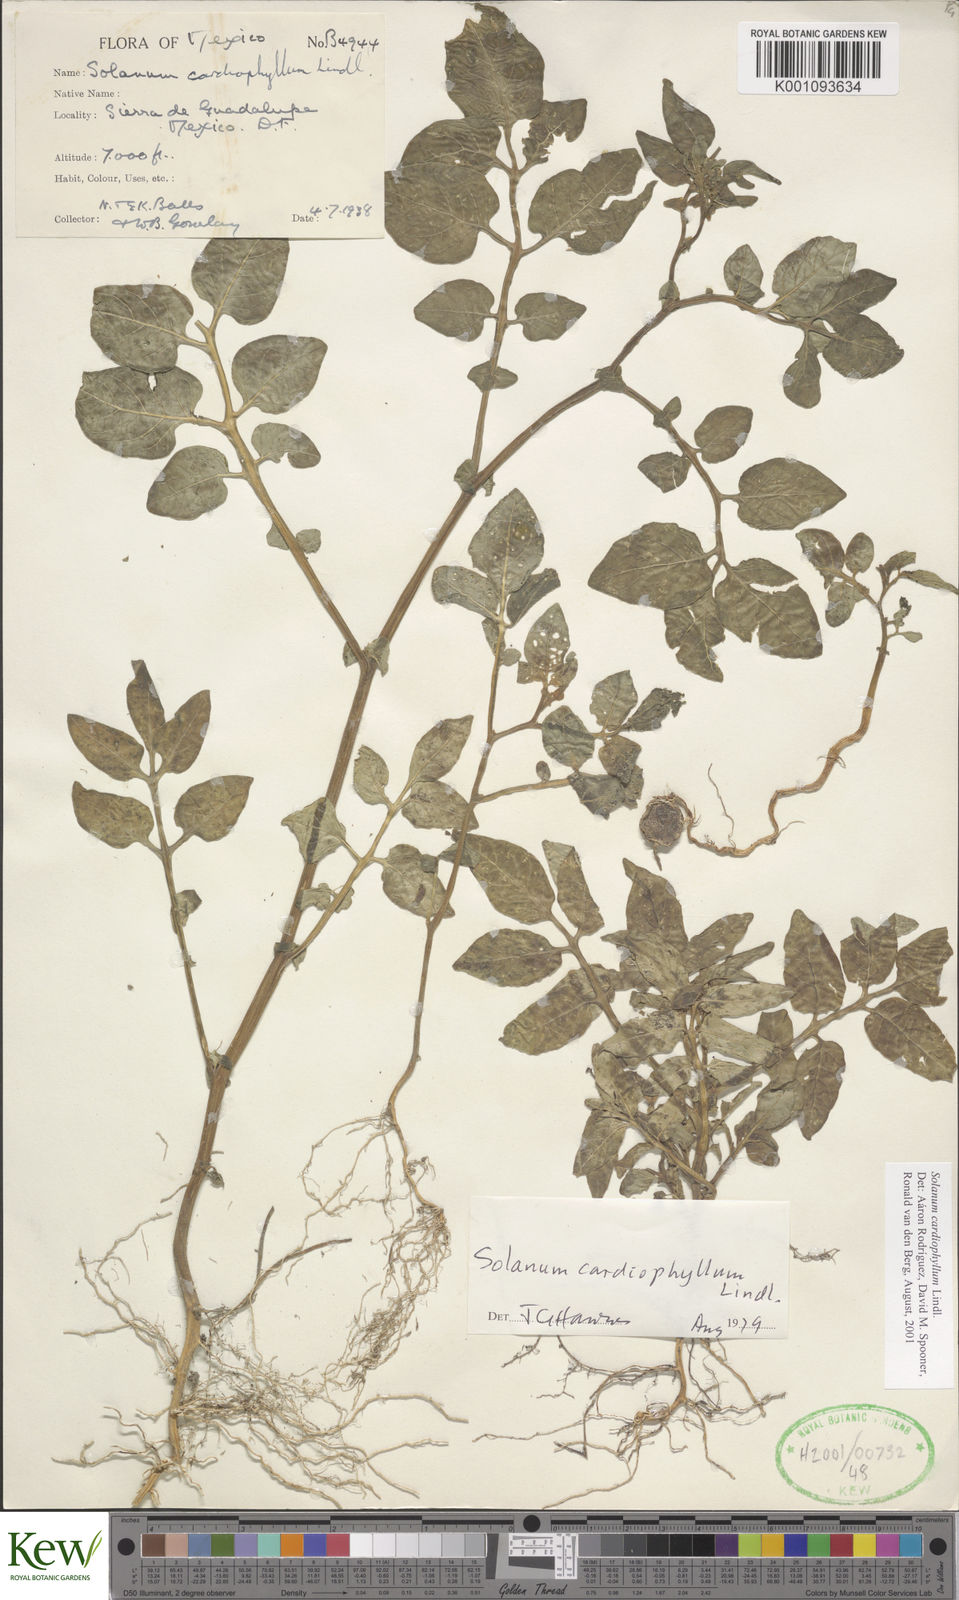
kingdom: Plantae
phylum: Tracheophyta
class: Magnoliopsida
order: Solanales
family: Solanaceae
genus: Solanum
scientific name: Solanum cardiophyllum
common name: Heartleaf horsenettle
